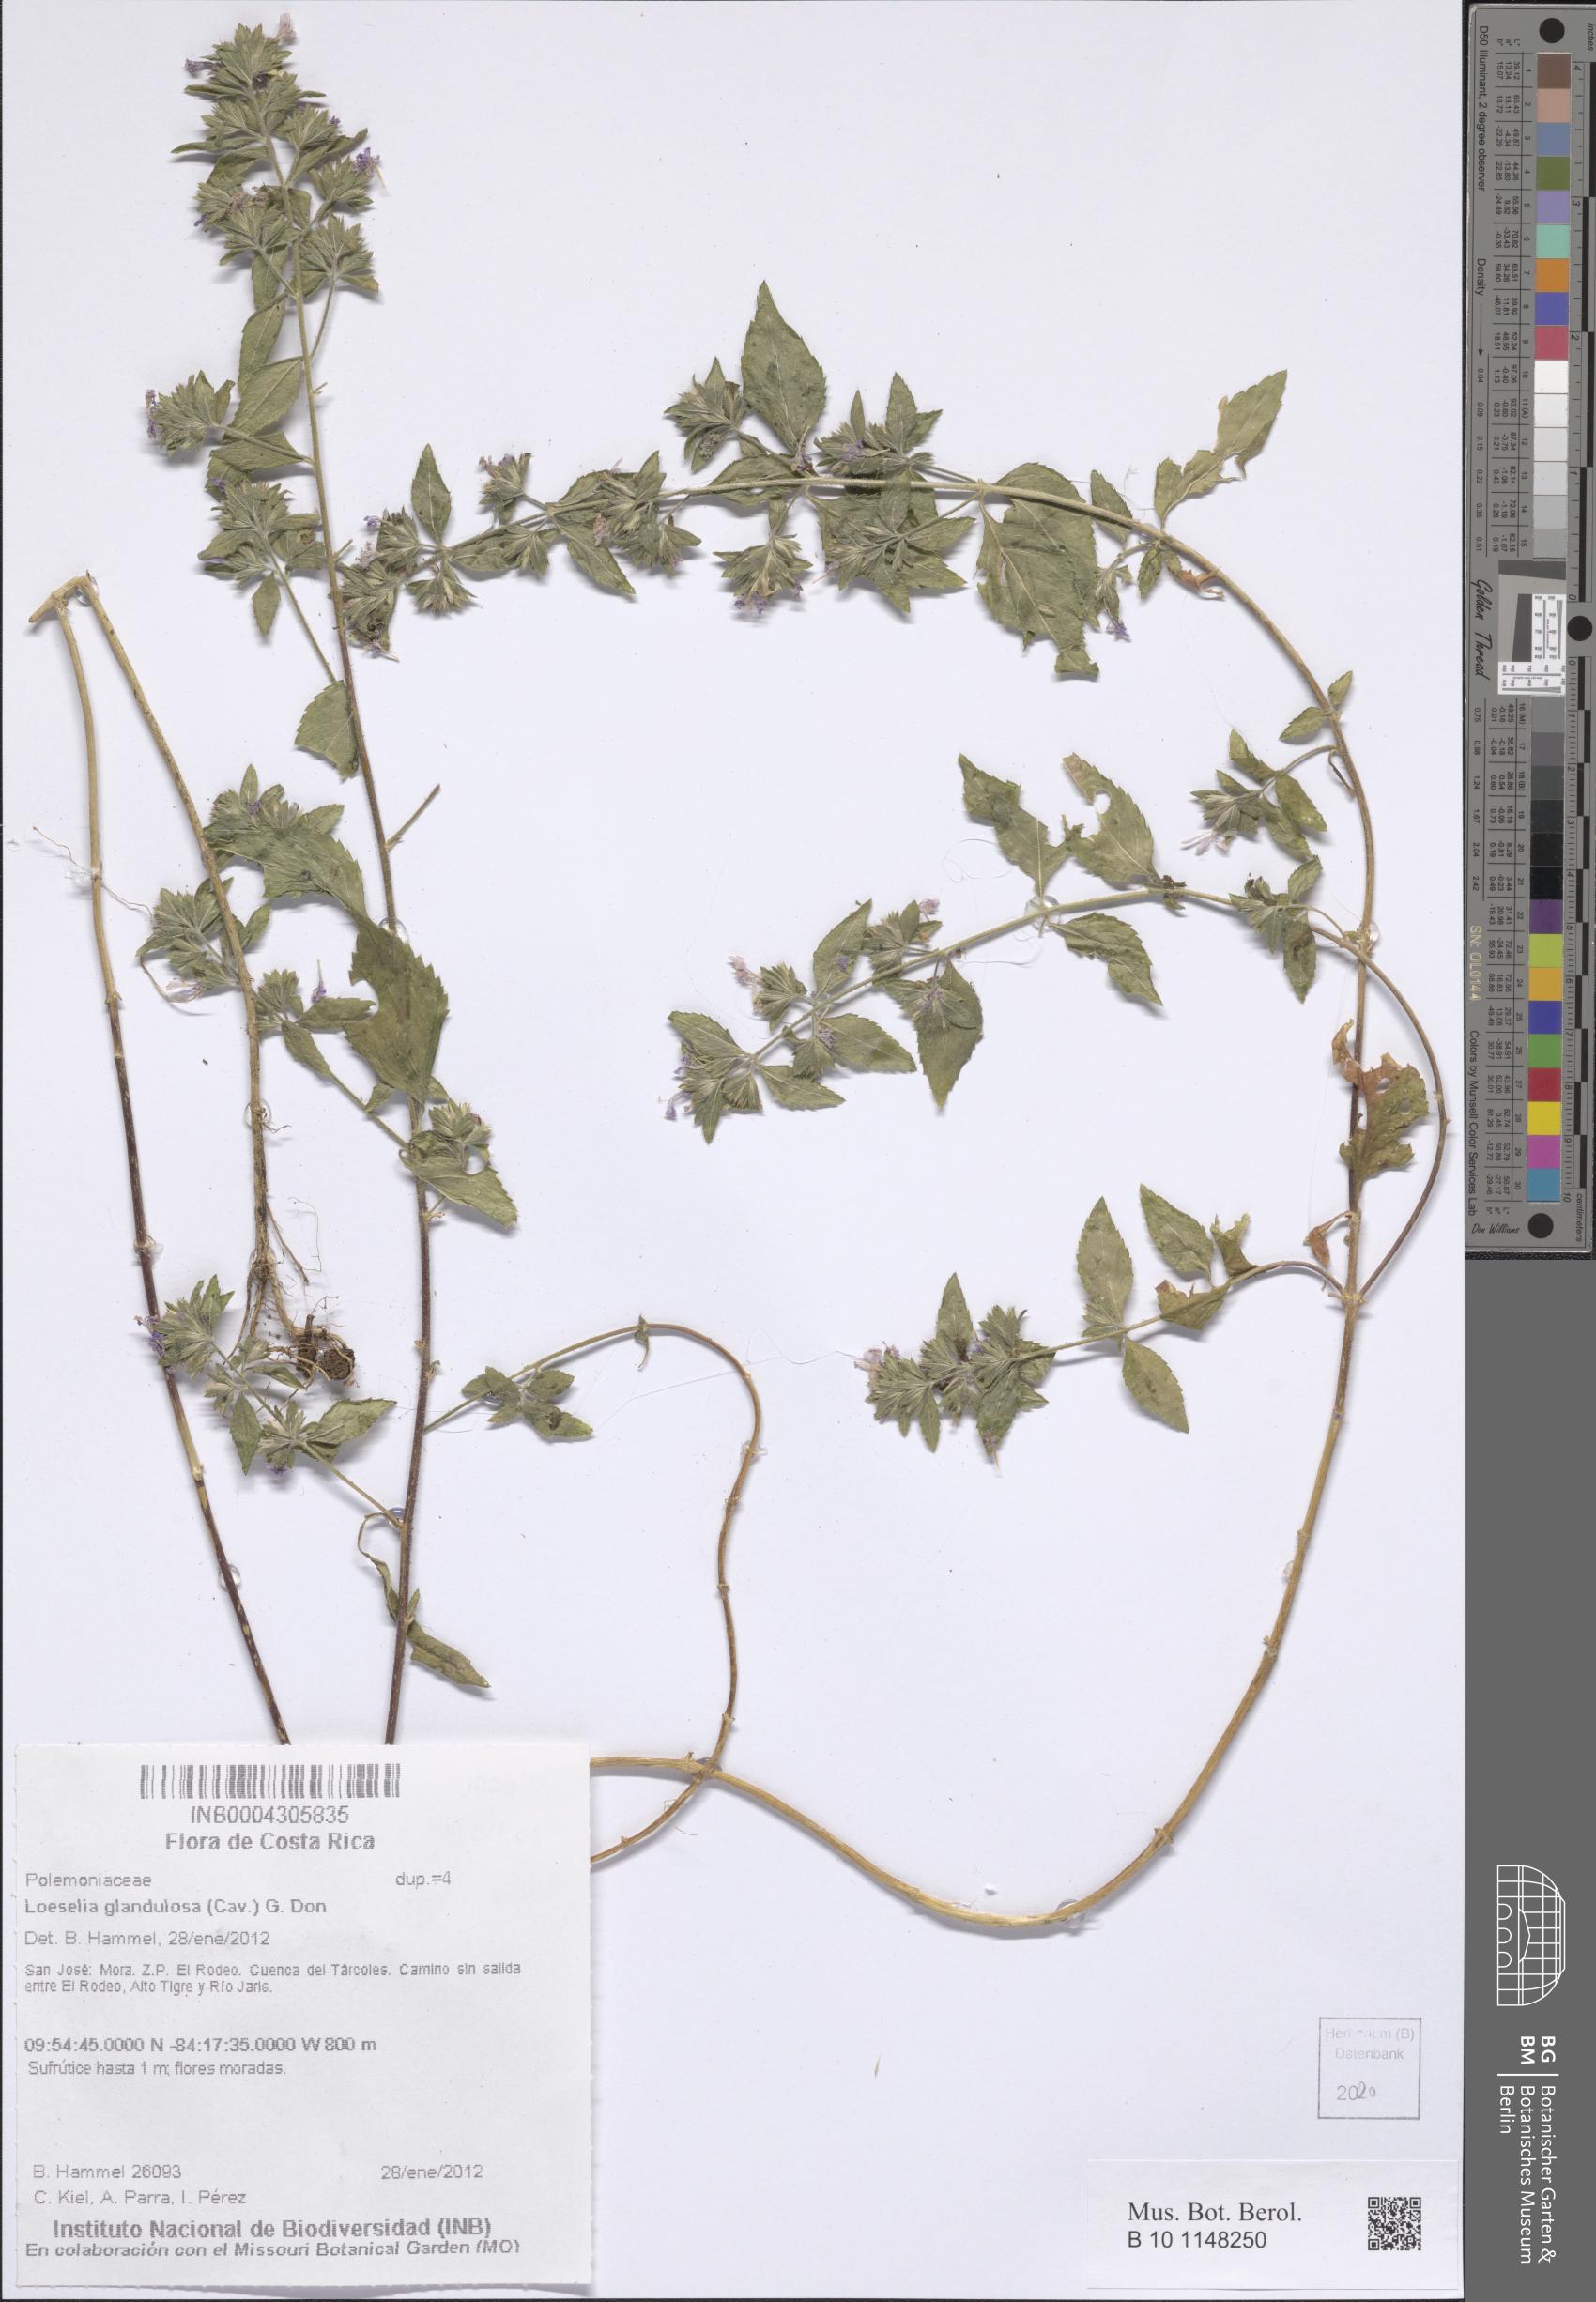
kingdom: Plantae
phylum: Tracheophyta
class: Magnoliopsida
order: Ericales
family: Polemoniaceae
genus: Loeselia
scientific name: Loeselia glandulosa
